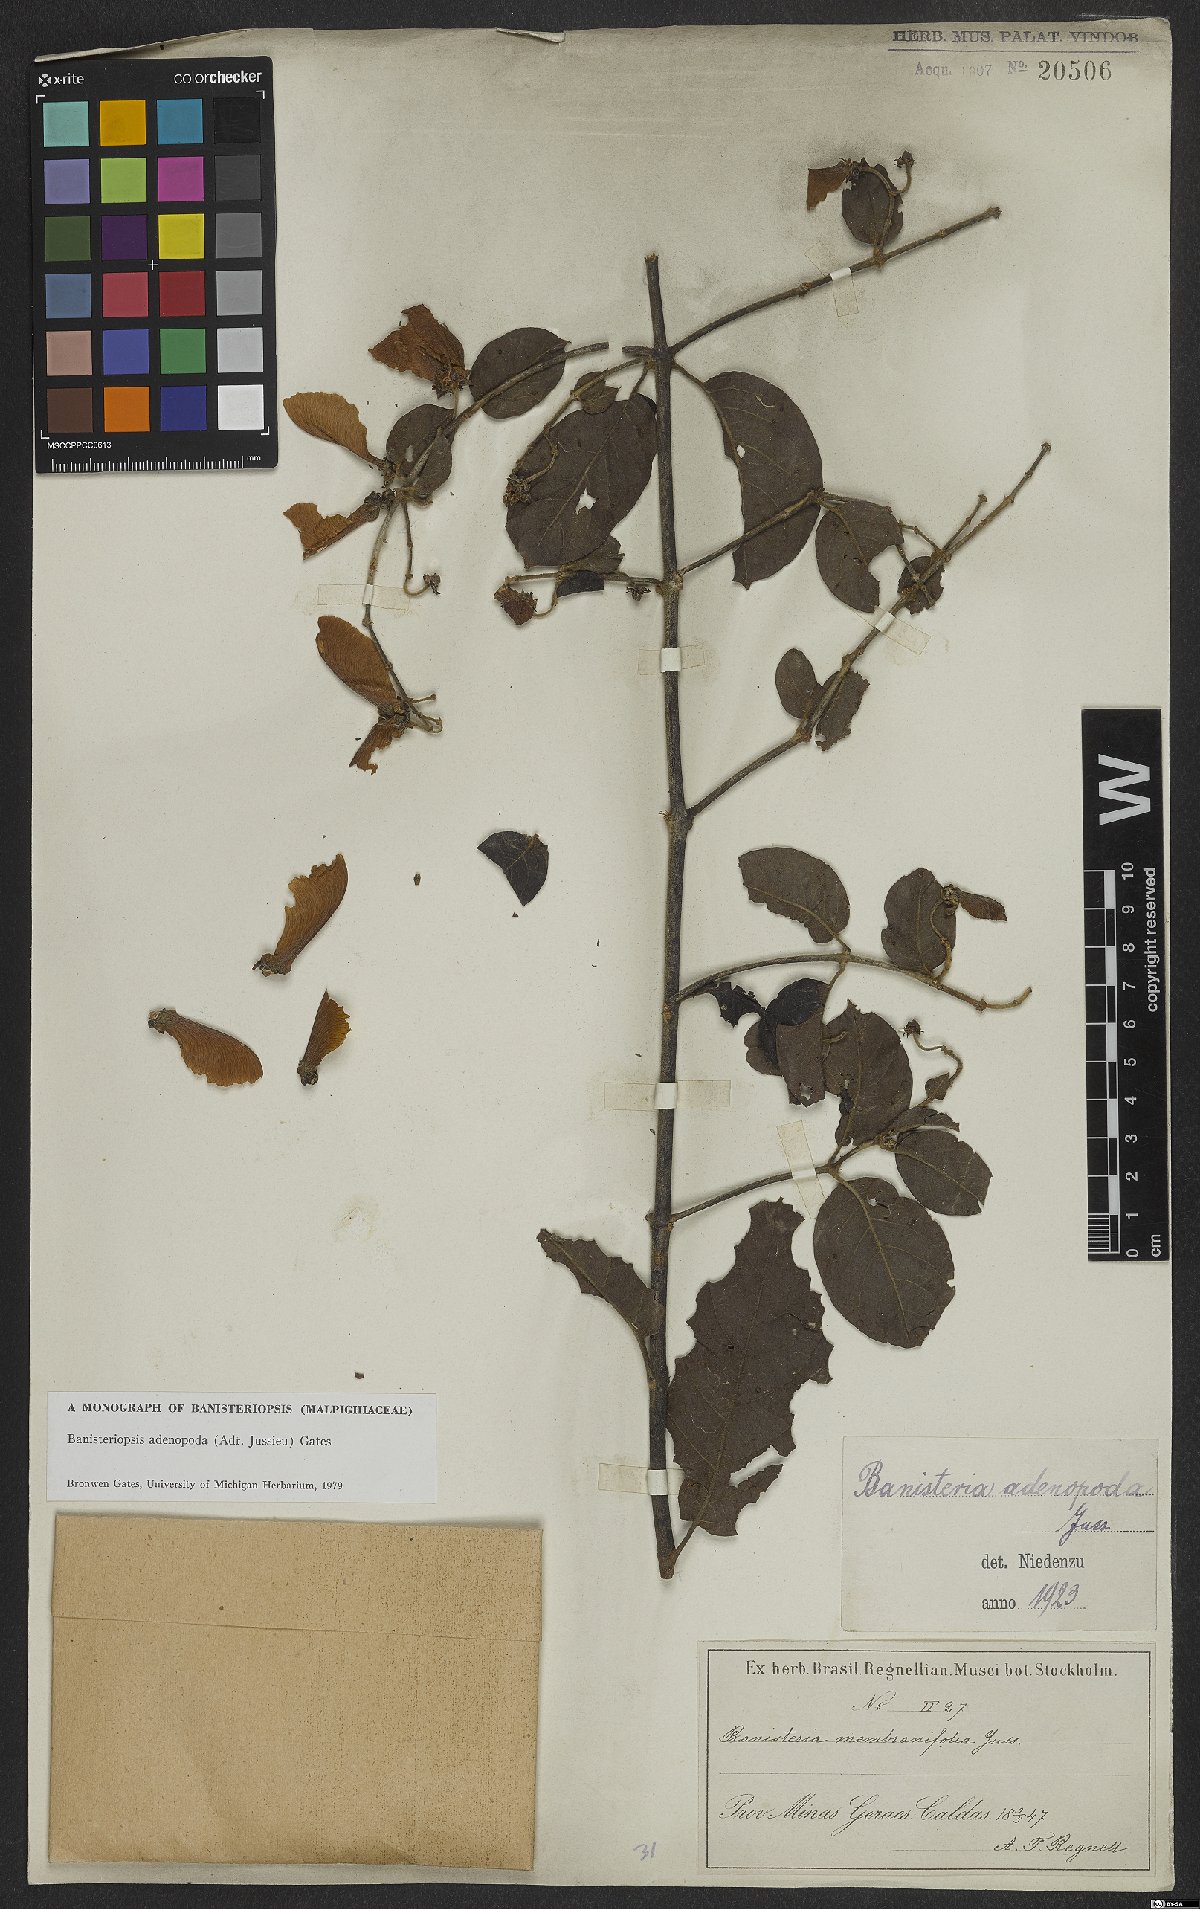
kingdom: Plantae
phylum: Tracheophyta
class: Magnoliopsida
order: Malpighiales
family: Malpighiaceae
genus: Banisteriopsis
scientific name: Banisteriopsis adenopoda
